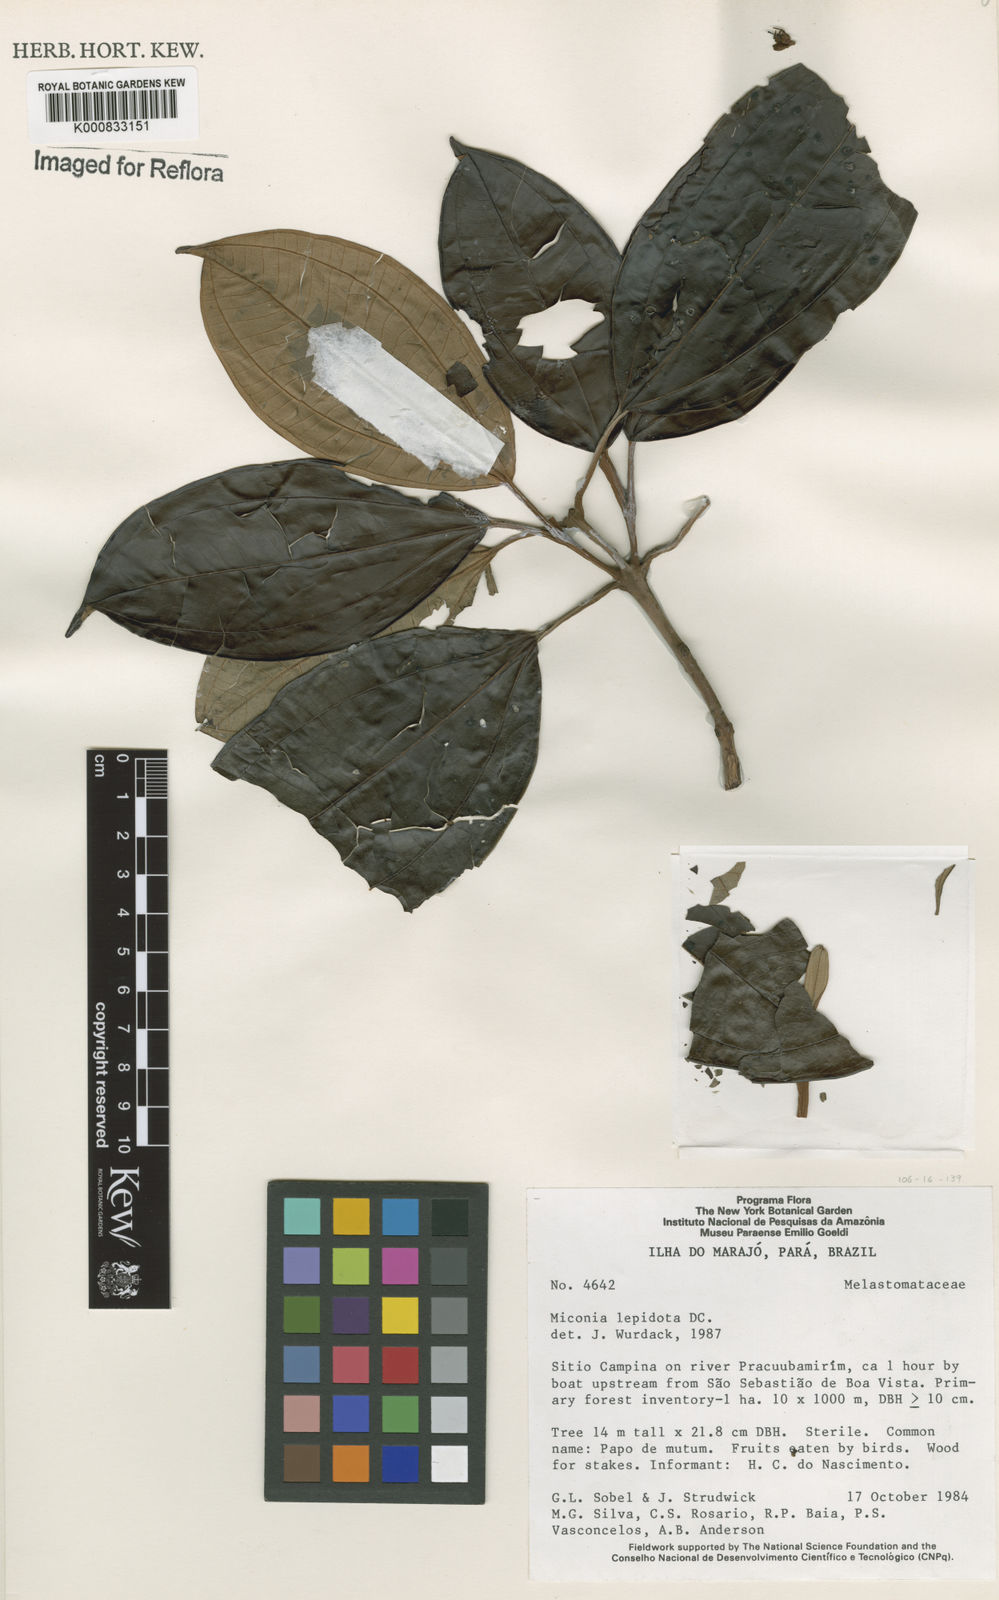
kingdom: Plantae
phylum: Tracheophyta
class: Magnoliopsida
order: Myrtales
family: Melastomataceae
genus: Miconia
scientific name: Miconia lepidota
